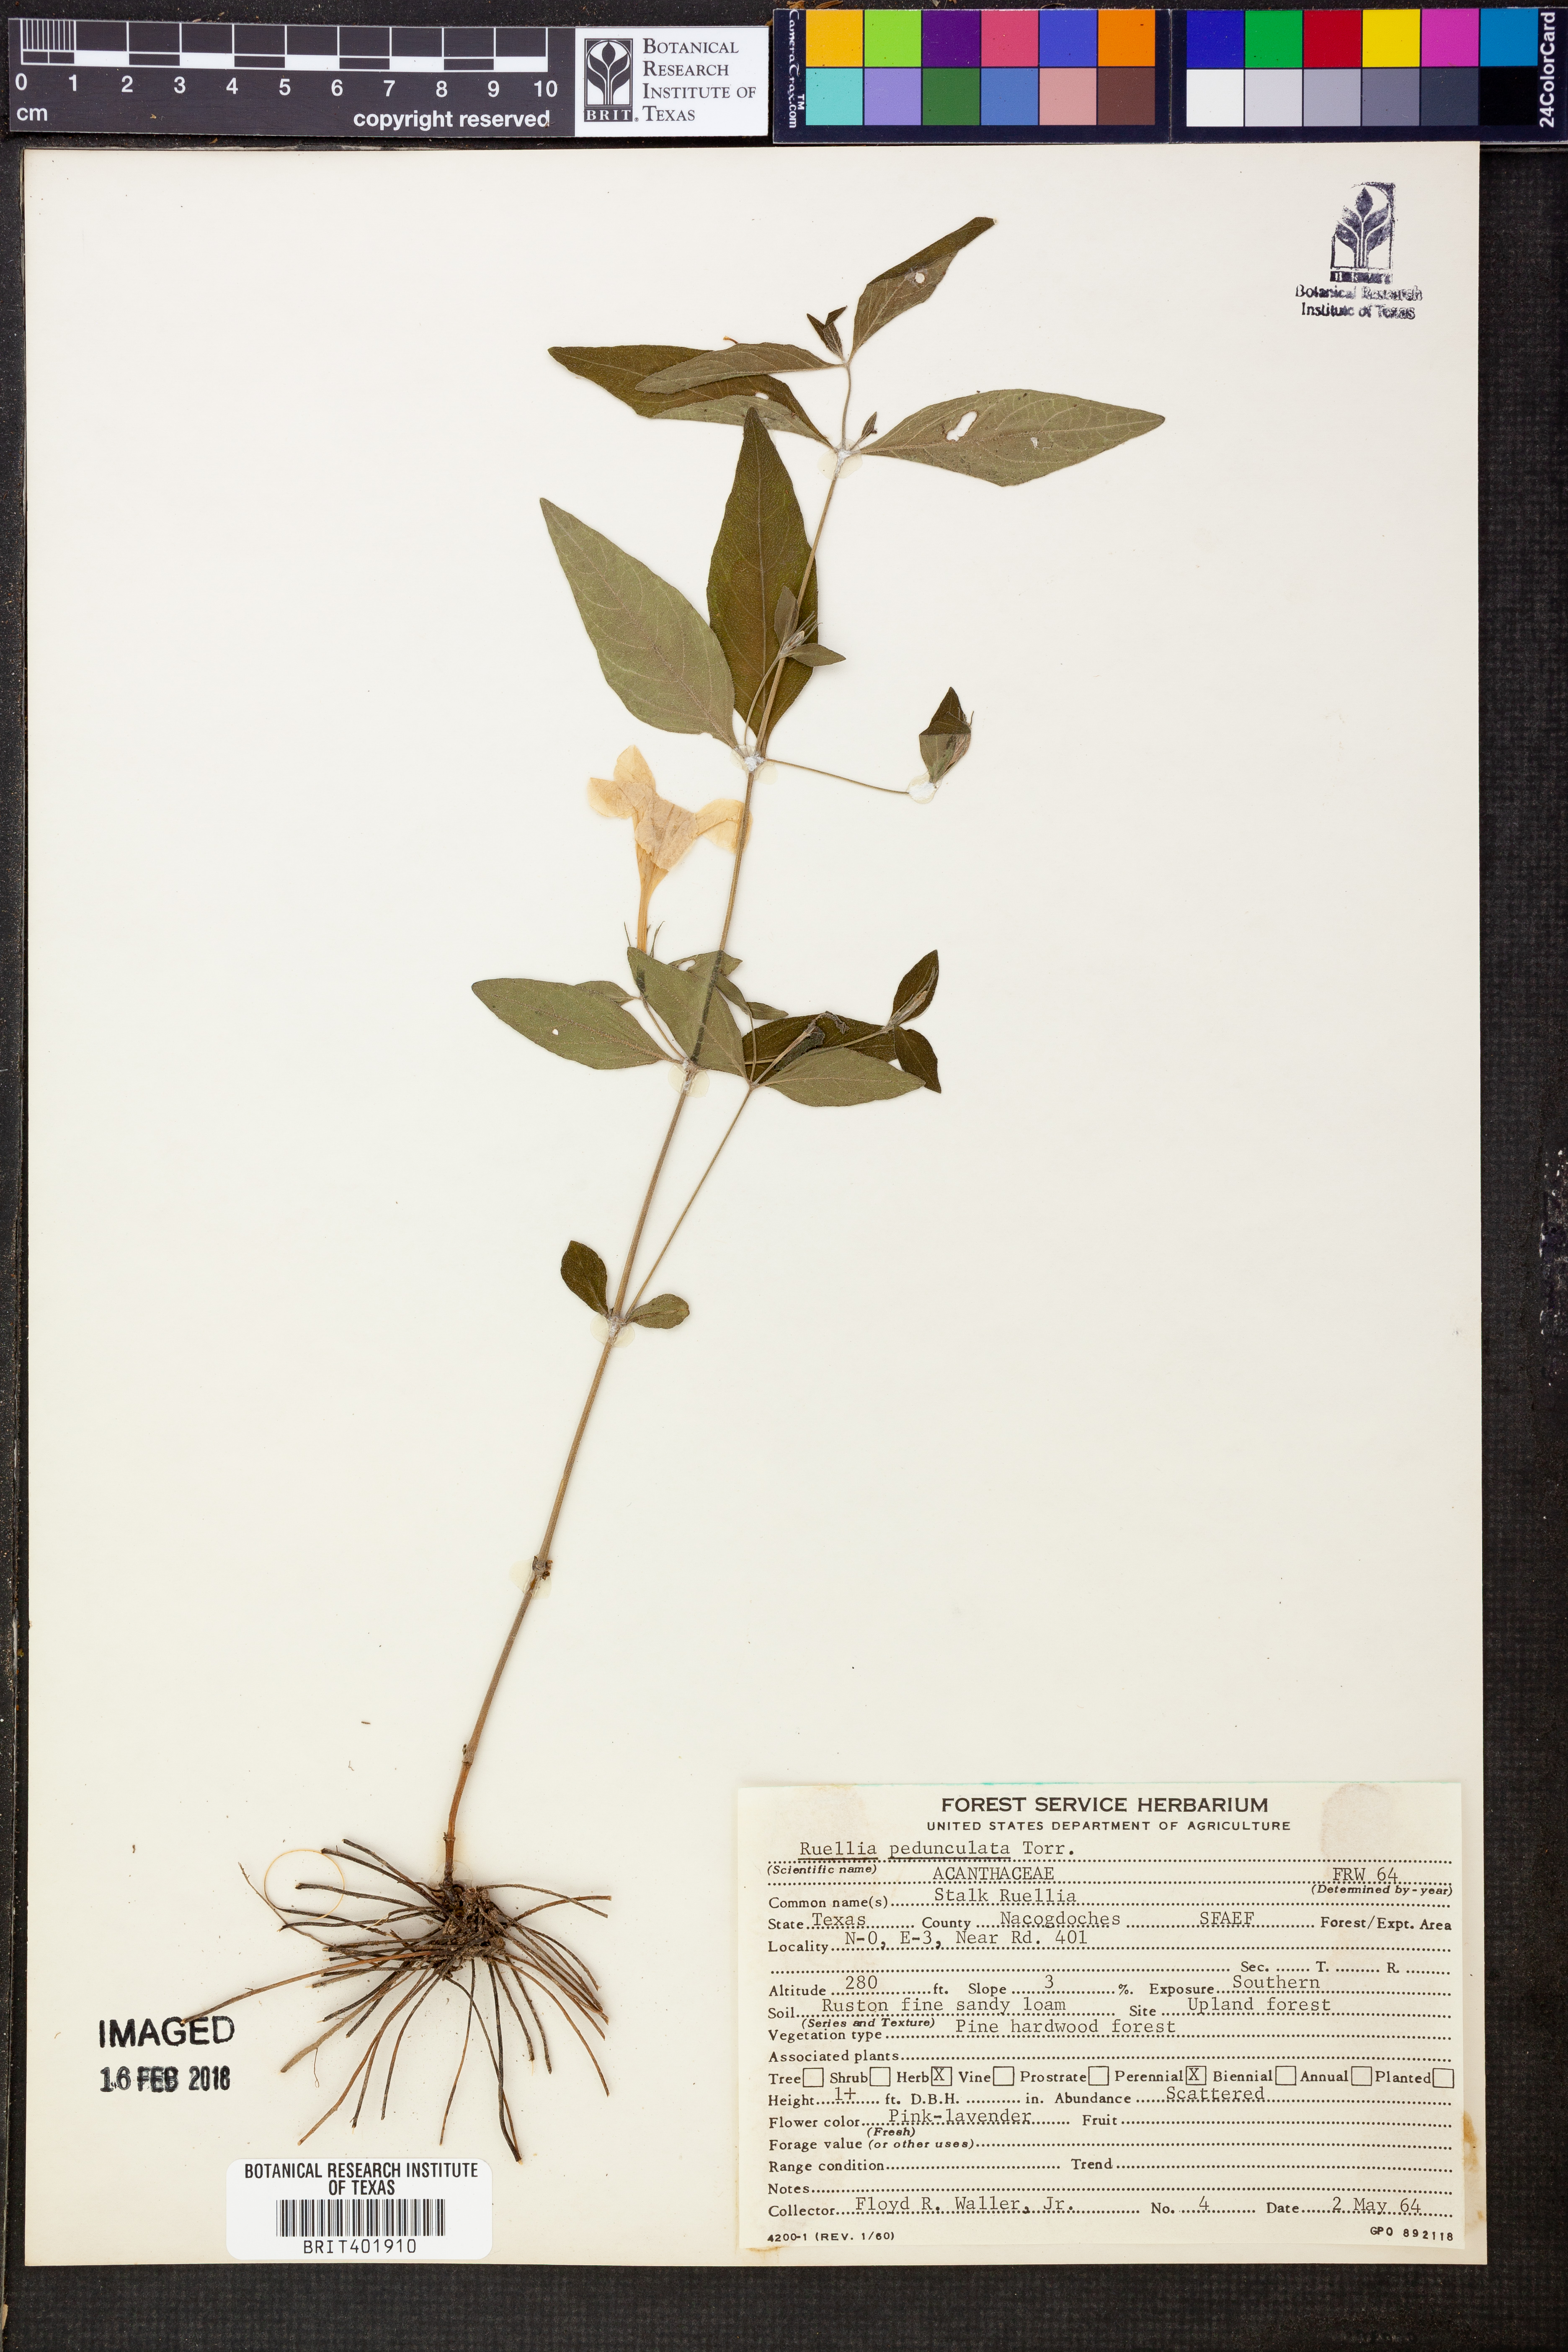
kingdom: Plantae
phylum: Tracheophyta
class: Magnoliopsida
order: Lamiales
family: Acanthaceae
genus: Ruellia
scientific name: Ruellia pedunculata
